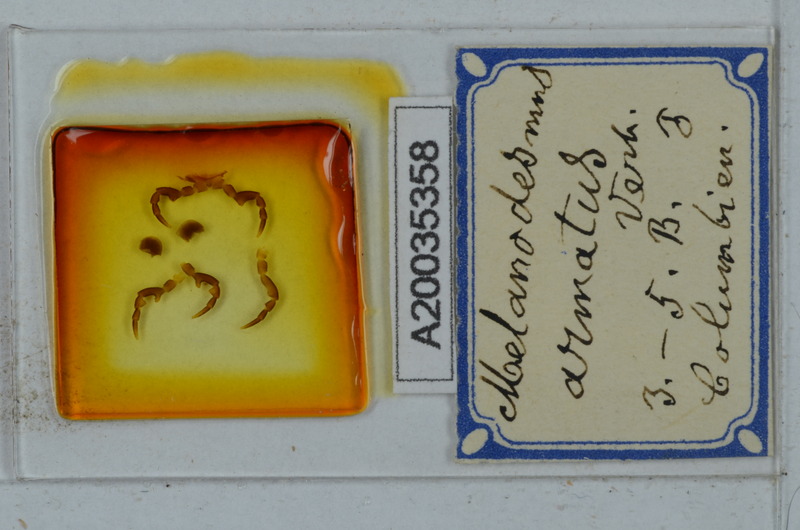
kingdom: Animalia
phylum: Arthropoda
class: Diplopoda
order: Polydesmida
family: Chelodesmidae
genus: Biporodesmus
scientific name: Biporodesmus armatus
